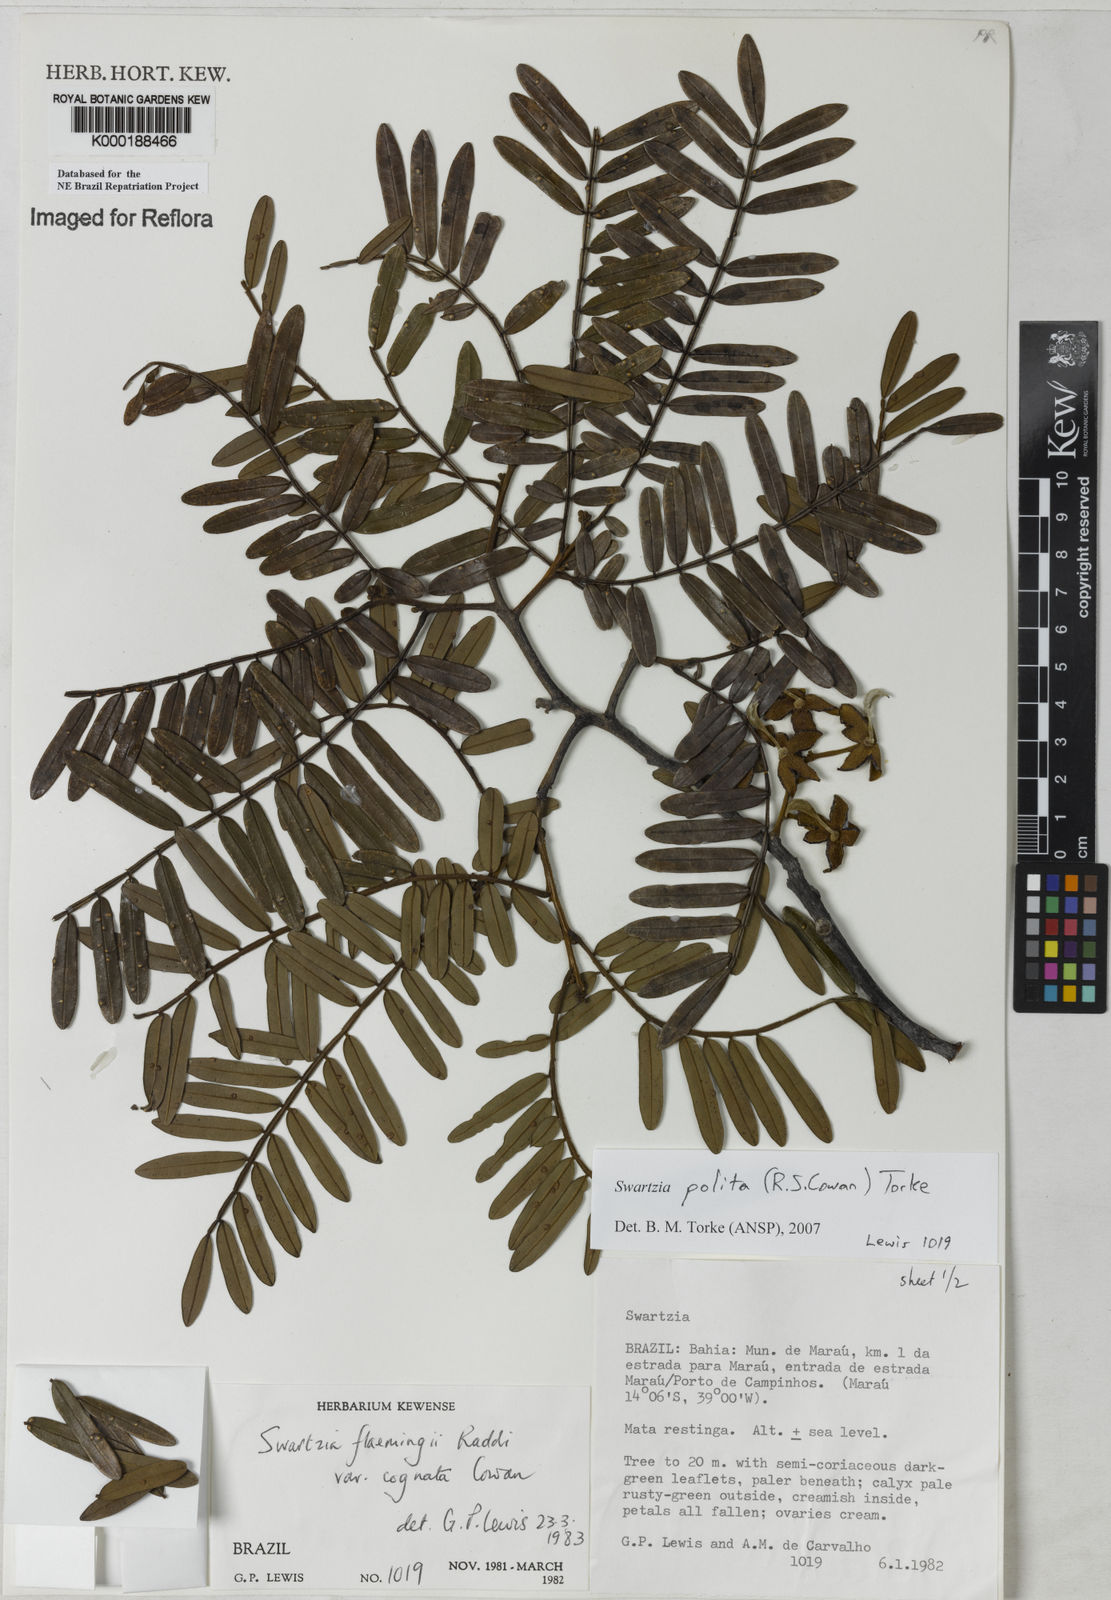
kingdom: Plantae
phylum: Tracheophyta
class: Magnoliopsida
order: Fabales
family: Fabaceae
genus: Swartzia
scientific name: Swartzia polita
